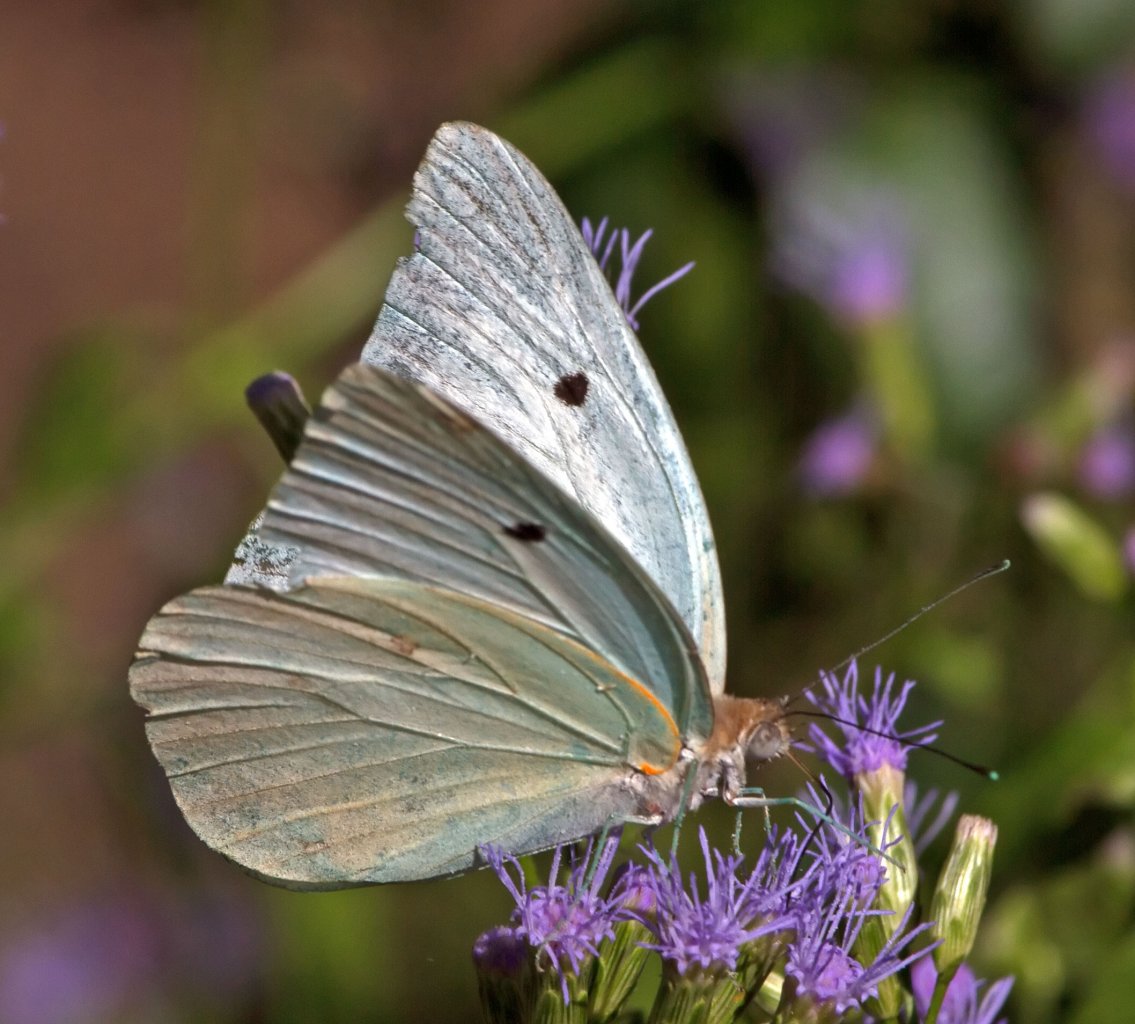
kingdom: Animalia
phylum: Arthropoda
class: Insecta
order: Lepidoptera
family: Pieridae
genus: Ganyra
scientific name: Ganyra josephina
